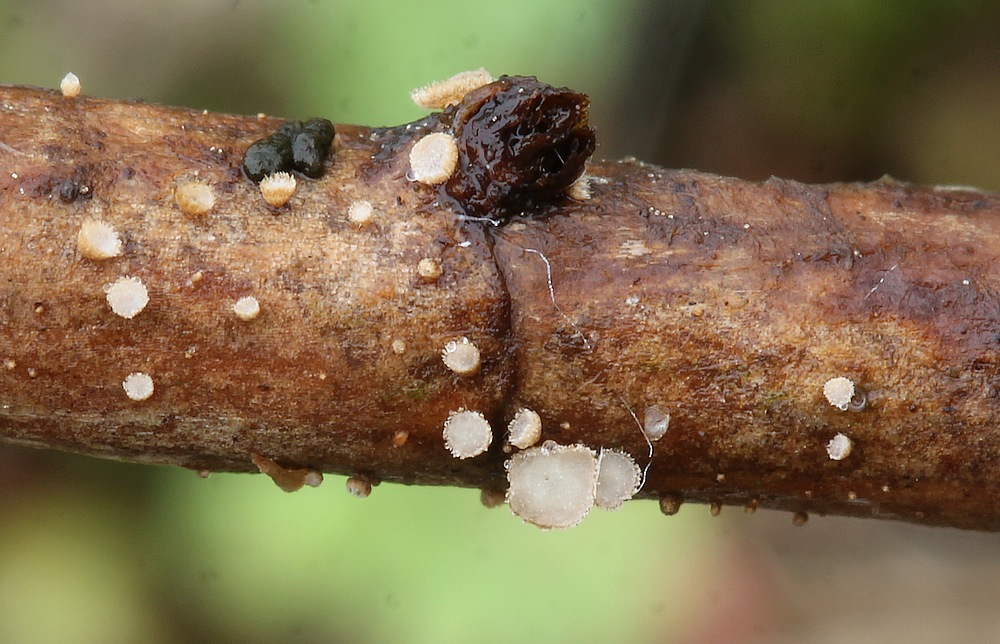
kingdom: Fungi
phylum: Basidiomycota
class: Agaricomycetes
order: Agaricales
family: Niaceae
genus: Merismodes
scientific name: Merismodes
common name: urte-læderskål
